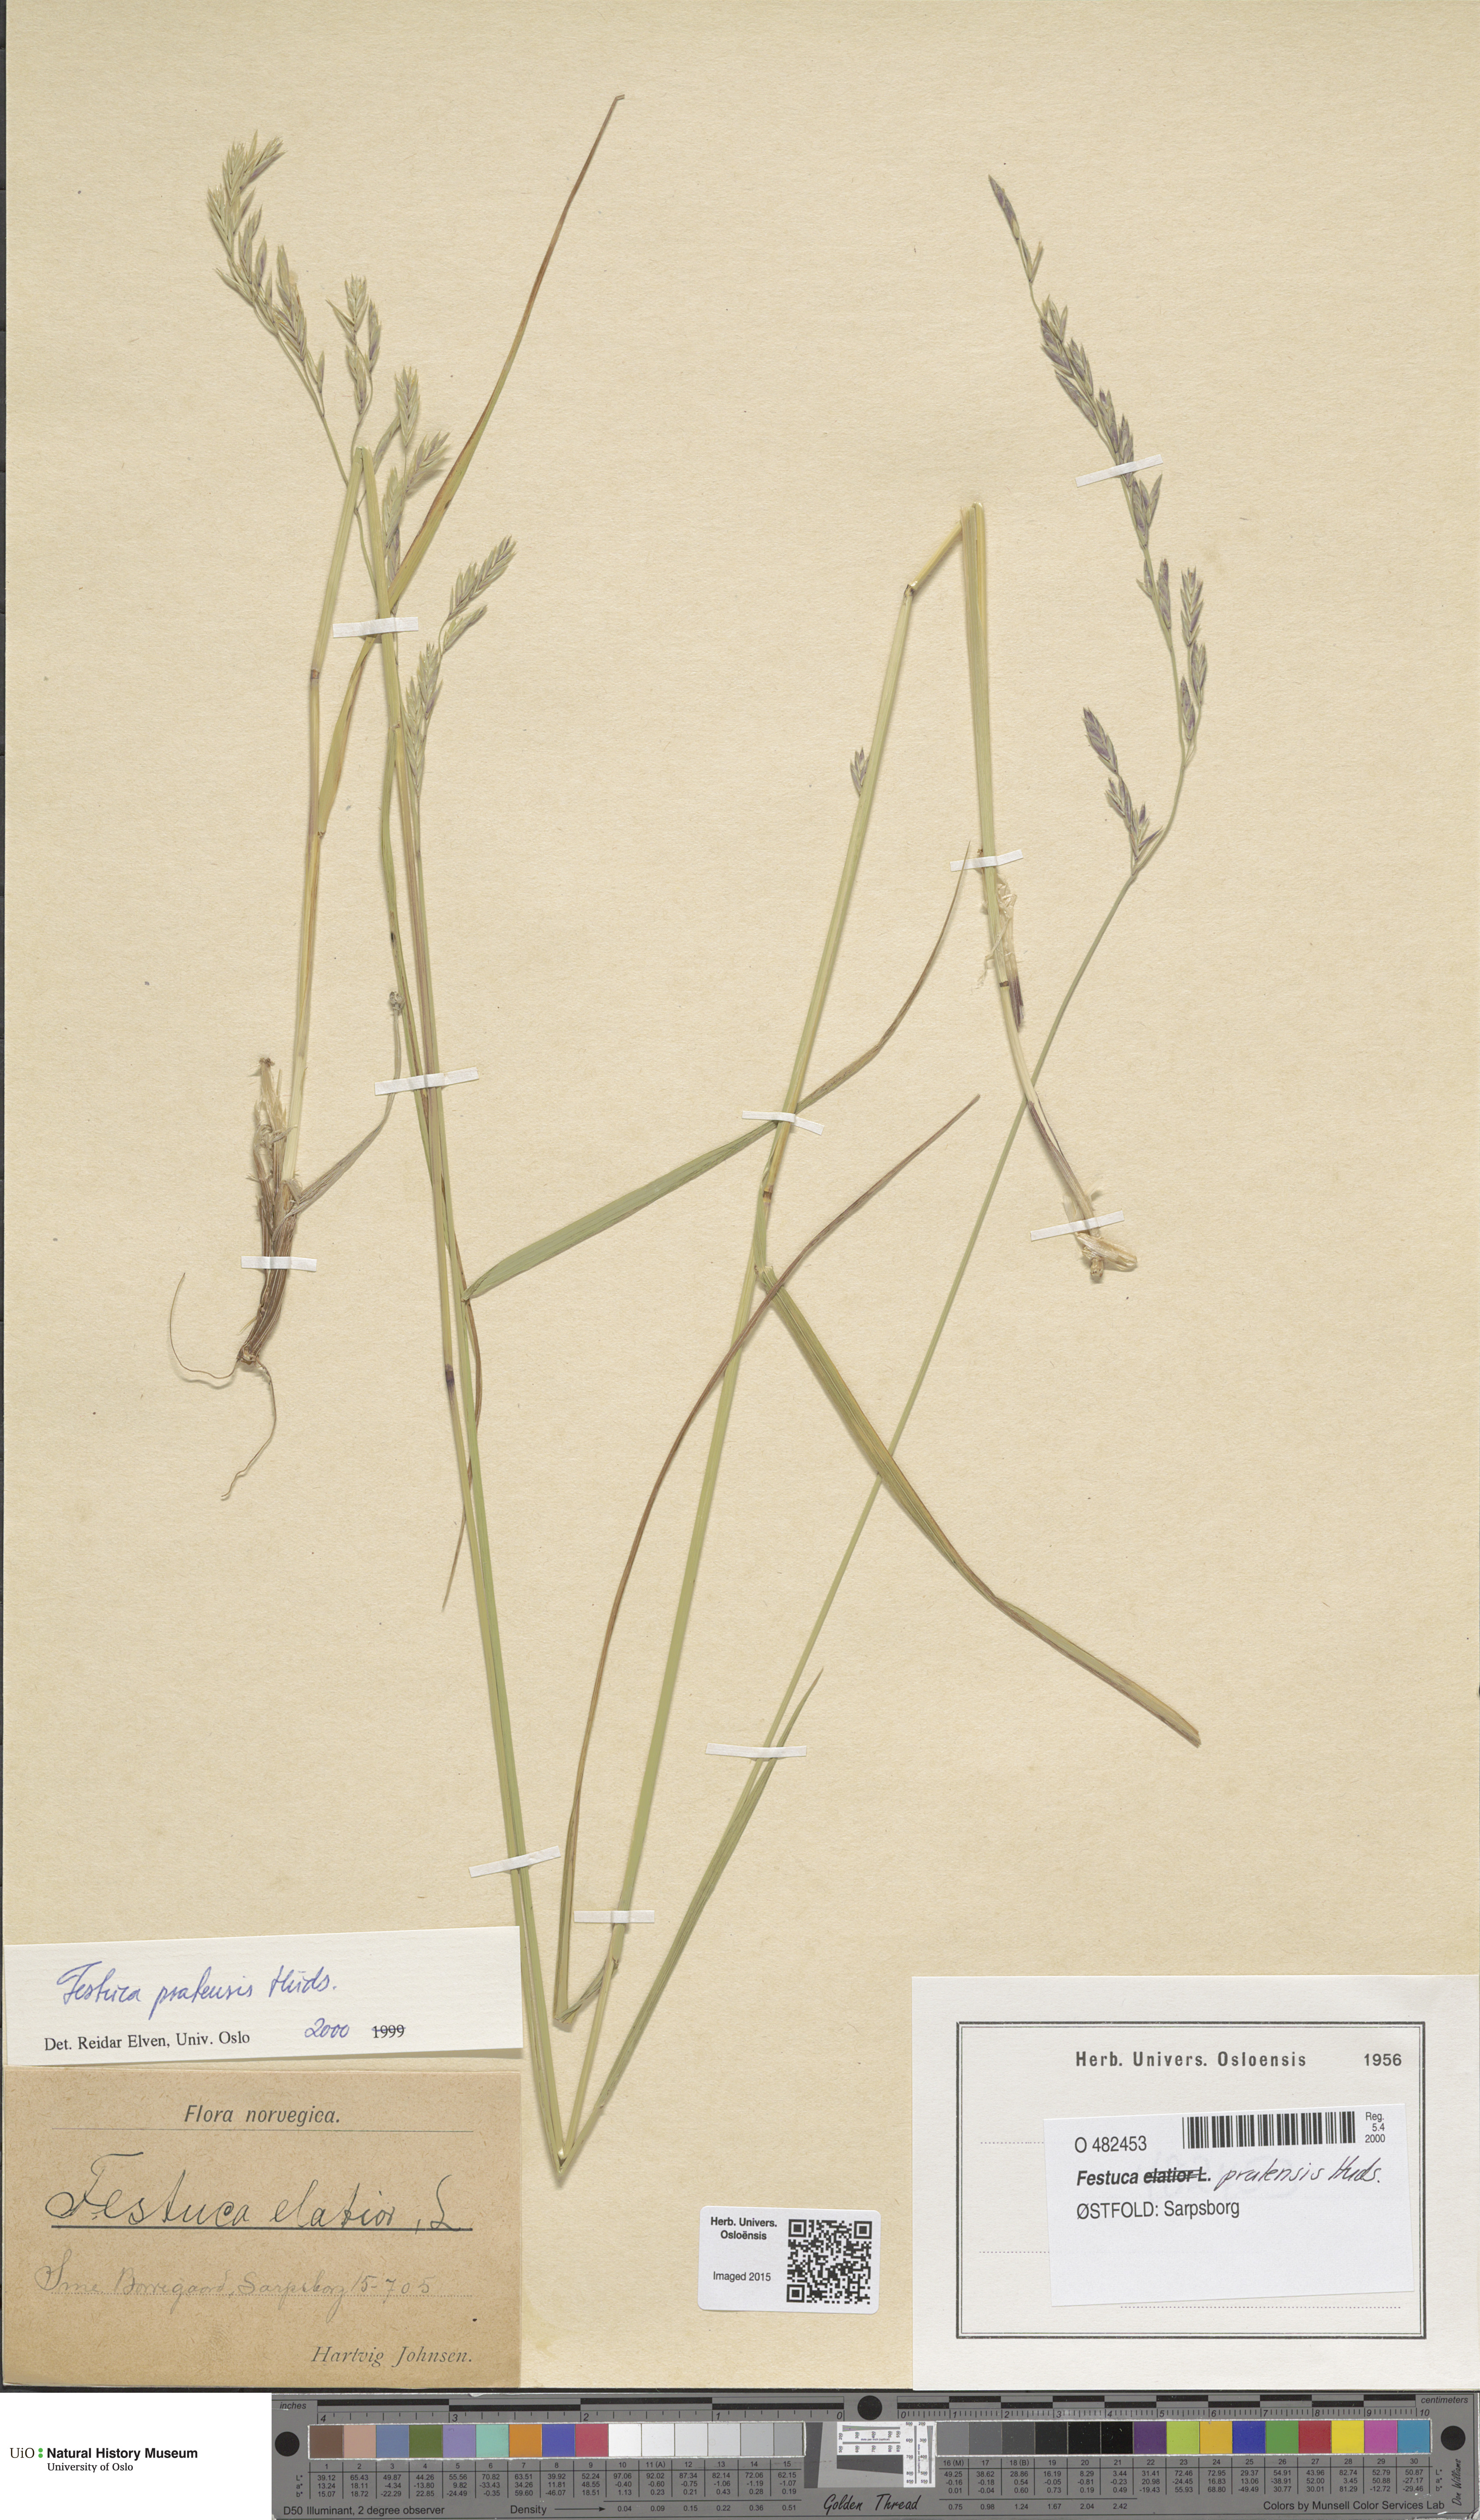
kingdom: Plantae
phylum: Tracheophyta
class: Liliopsida
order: Poales
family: Poaceae
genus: Lolium
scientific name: Lolium pratense
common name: Dover grass
